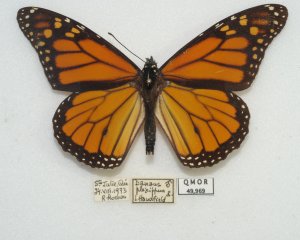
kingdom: Animalia
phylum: Arthropoda
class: Insecta
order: Lepidoptera
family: Nymphalidae
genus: Danaus
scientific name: Danaus plexippus
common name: Monarch
